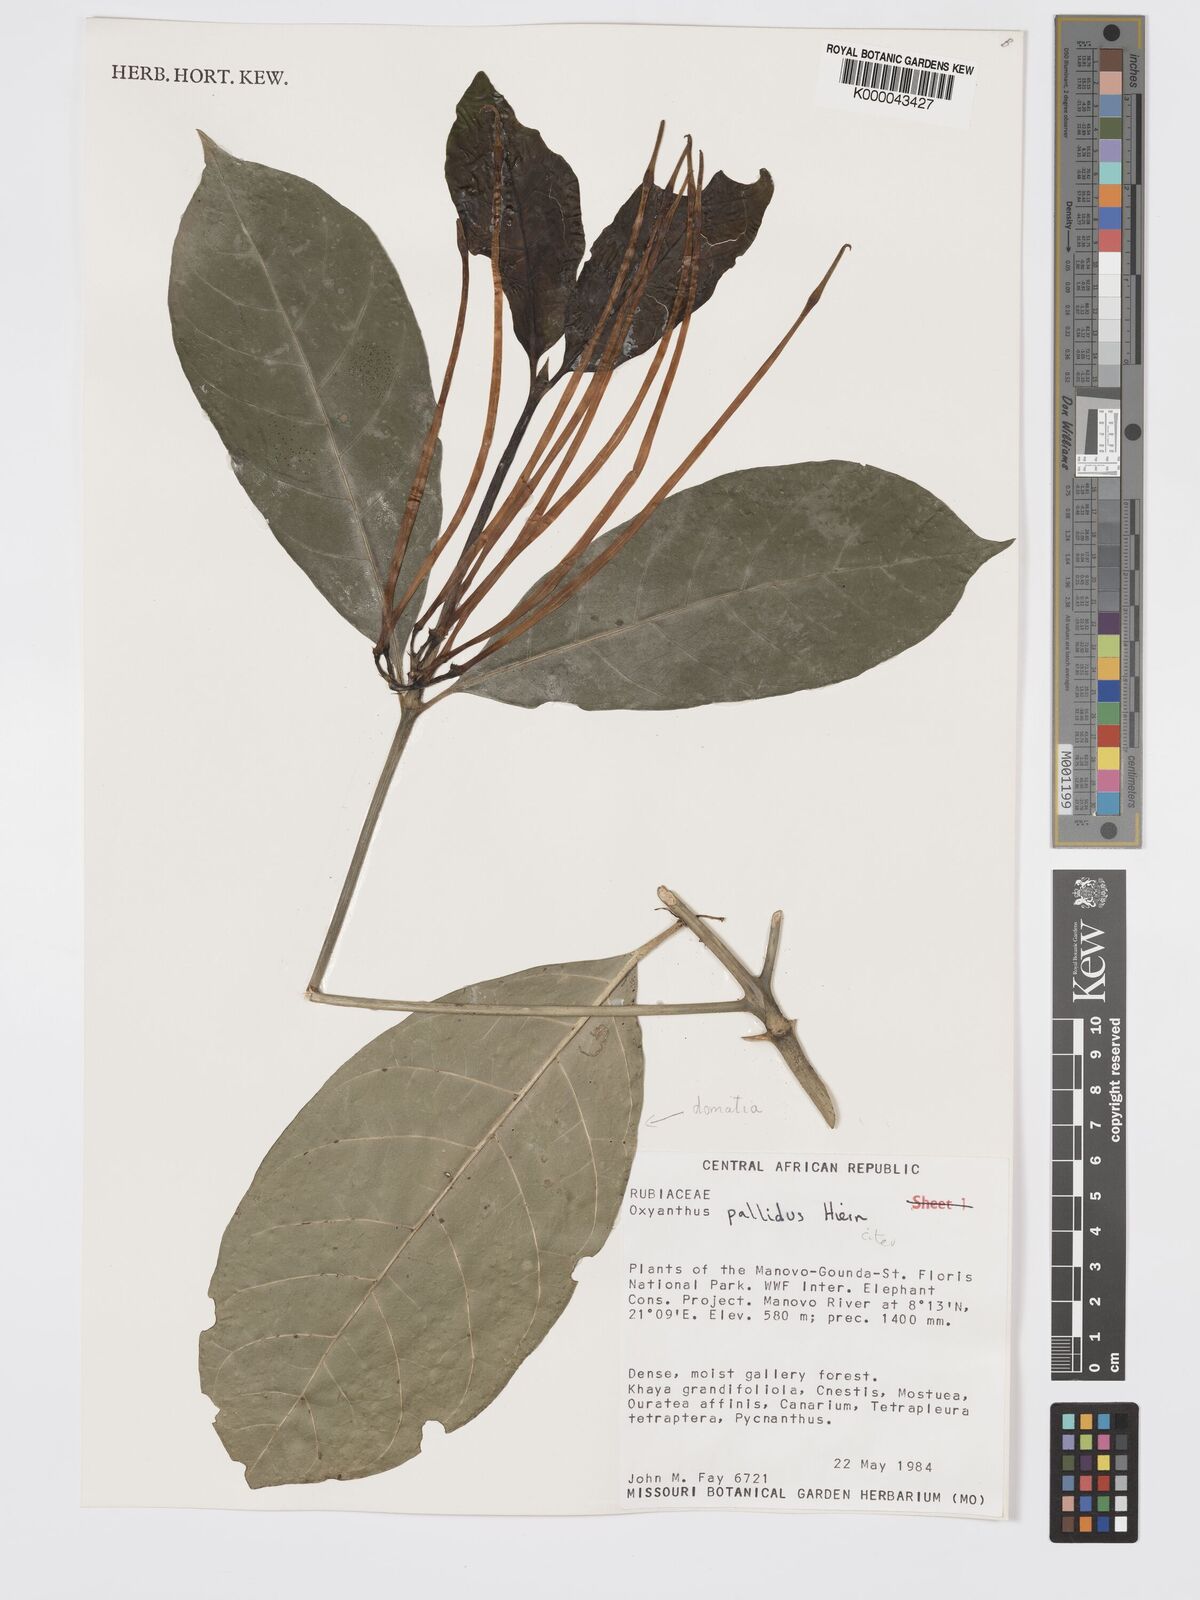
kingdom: Plantae
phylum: Tracheophyta
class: Magnoliopsida
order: Gentianales
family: Rubiaceae
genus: Oxyanthus
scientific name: Oxyanthus pallidus
